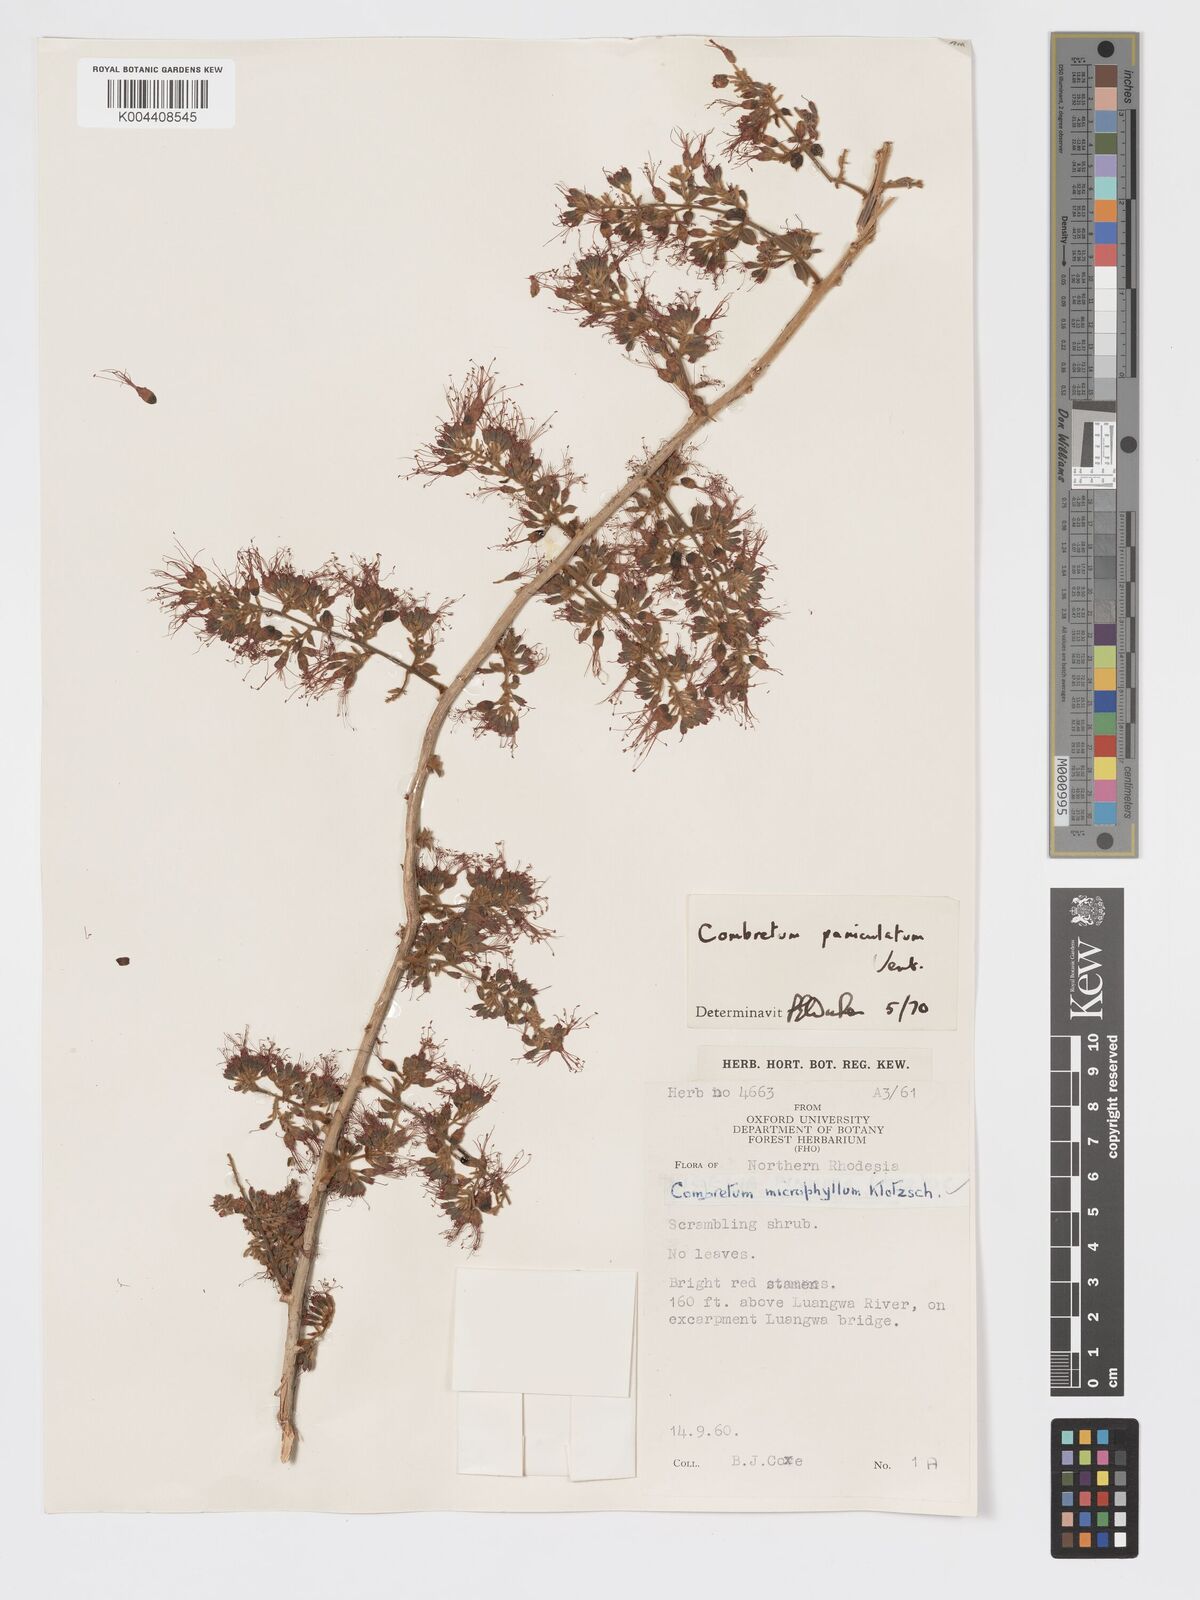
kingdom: Plantae
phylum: Tracheophyta
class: Magnoliopsida
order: Myrtales
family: Combretaceae
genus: Combretum
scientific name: Combretum paniculatum
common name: Fire vine
